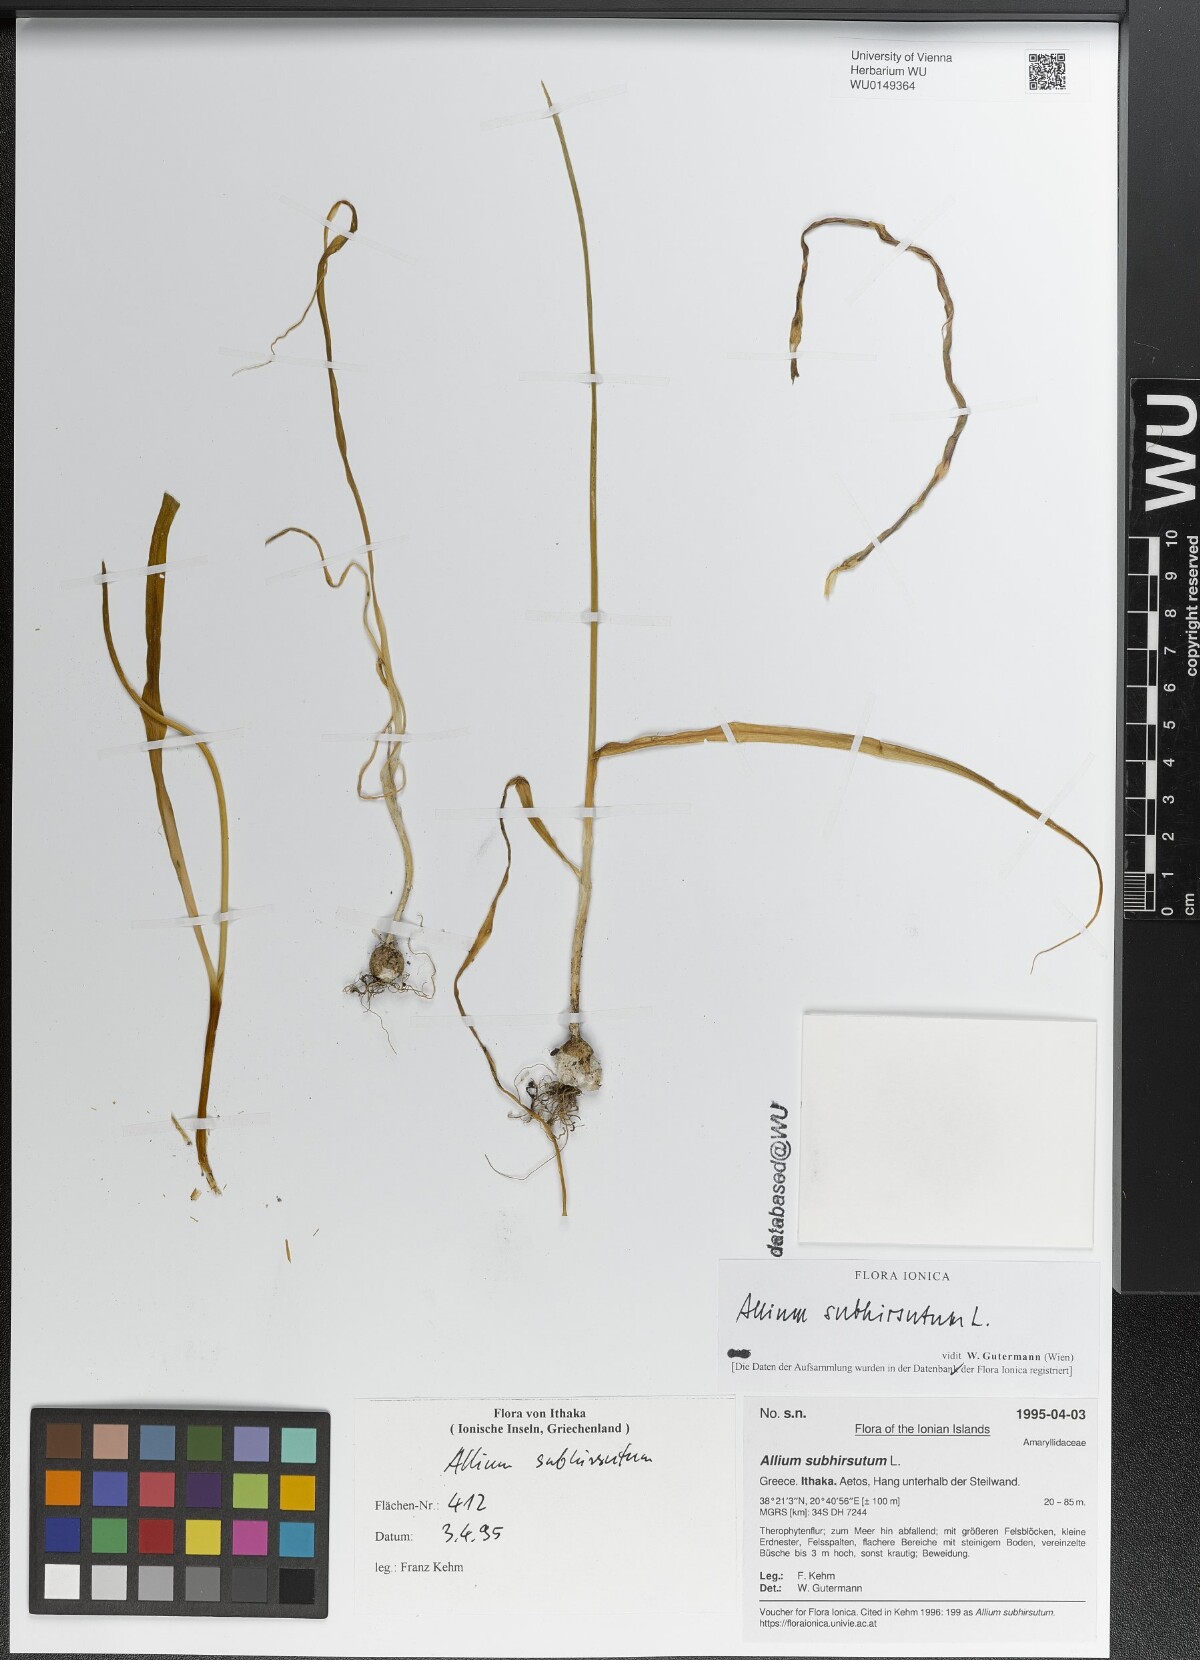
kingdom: Plantae
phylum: Tracheophyta
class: Liliopsida
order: Asparagales
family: Amaryllidaceae
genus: Allium
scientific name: Allium subhirsutum
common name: Hairy garlic
